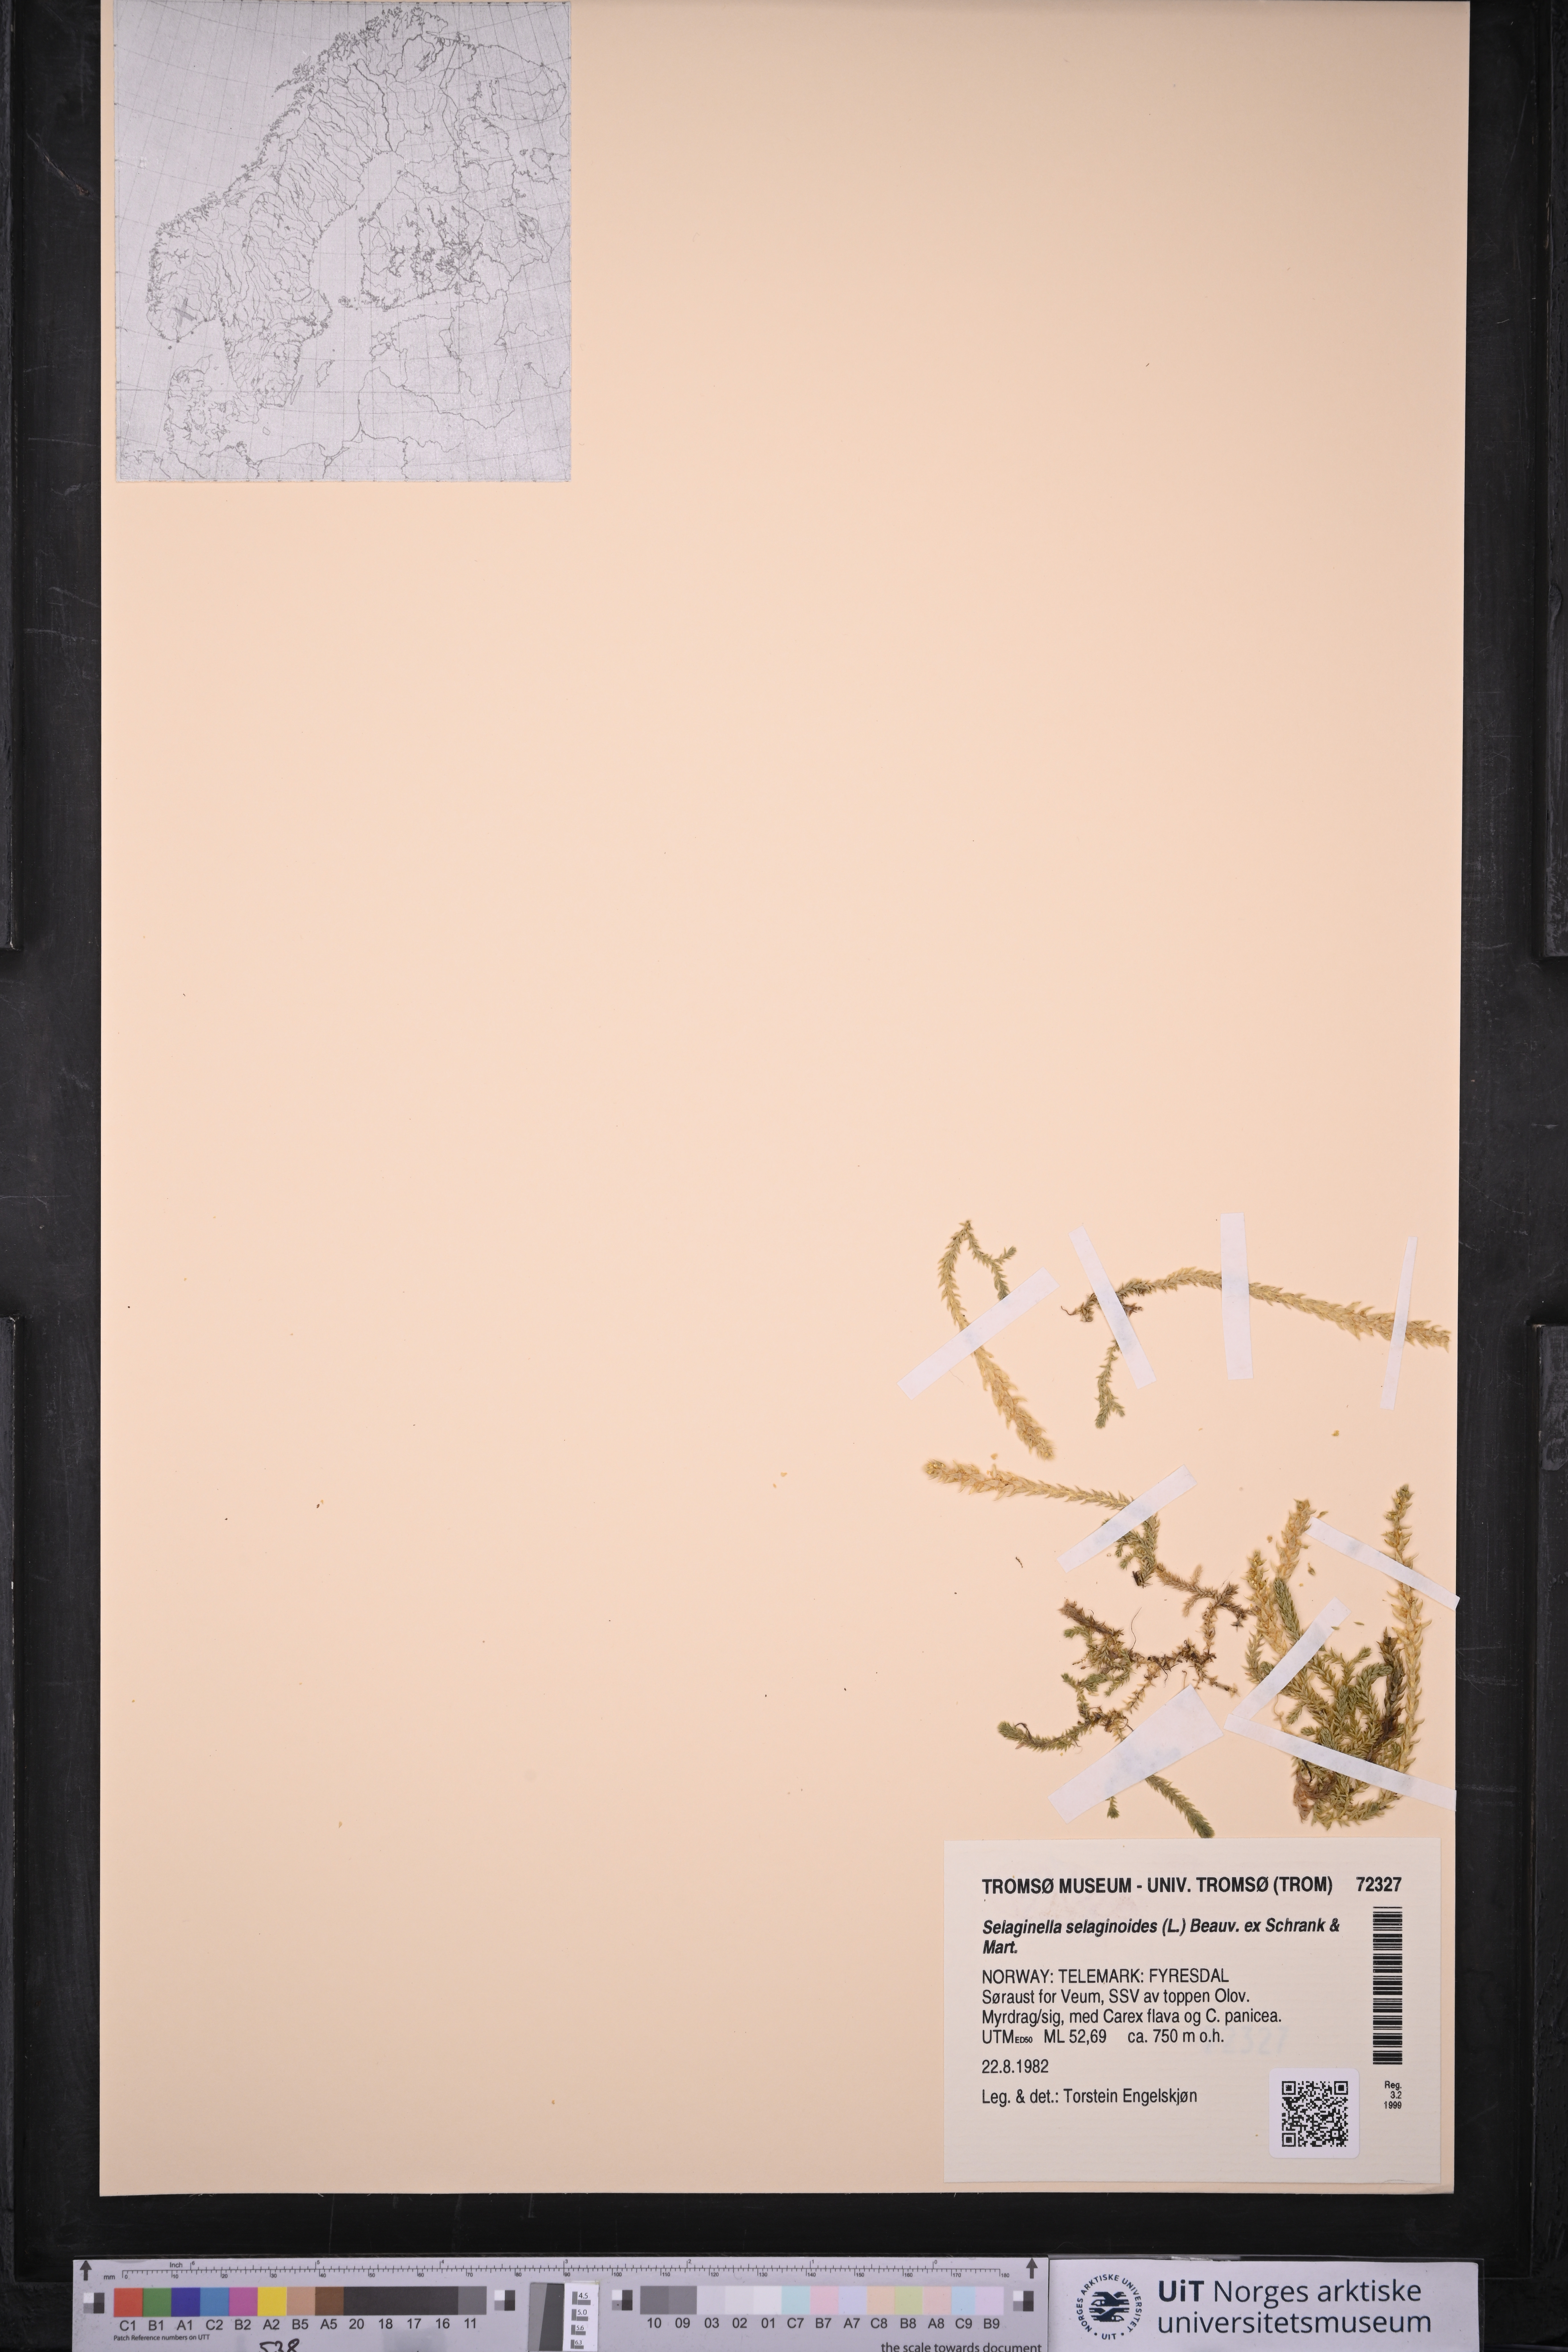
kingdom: Plantae
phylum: Tracheophyta
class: Lycopodiopsida
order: Selaginellales
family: Selaginellaceae
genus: Selaginella
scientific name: Selaginella selaginoides
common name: Prickly mountain-moss
